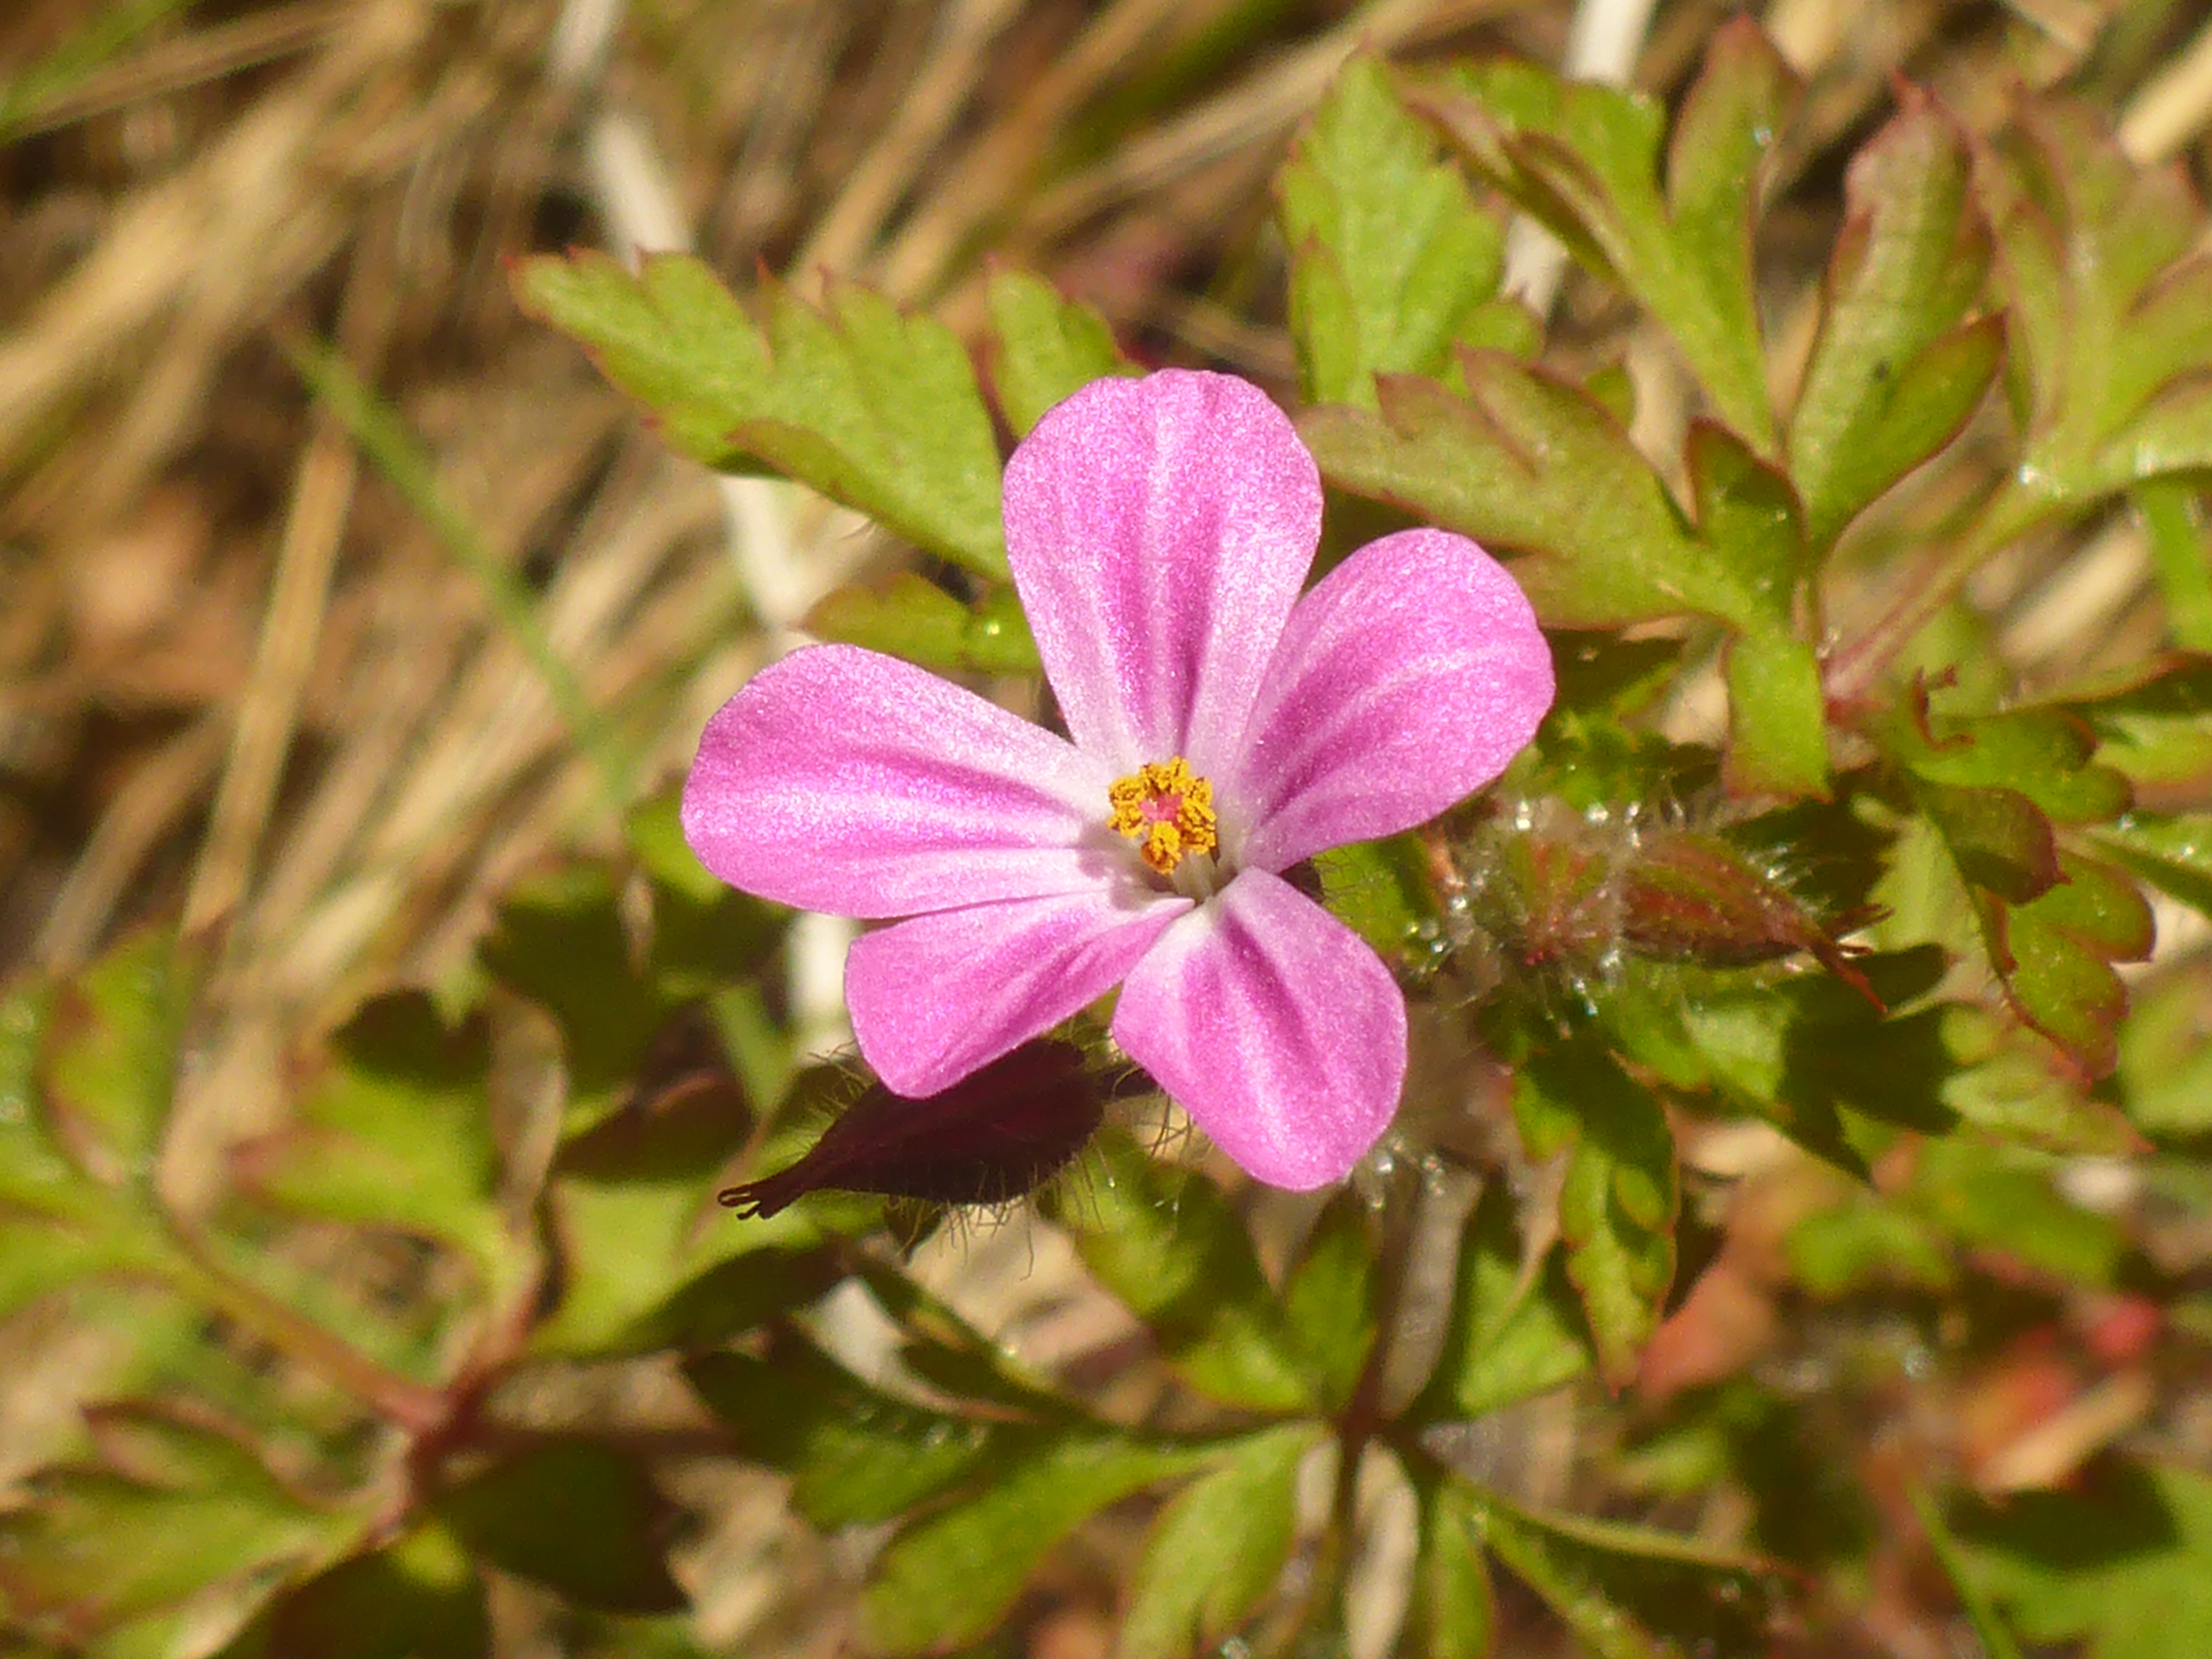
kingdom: Plantae
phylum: Tracheophyta
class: Magnoliopsida
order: Geraniales
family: Geraniaceae
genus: Geranium
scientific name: Geranium robertianum
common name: Stinkende storkenæb
